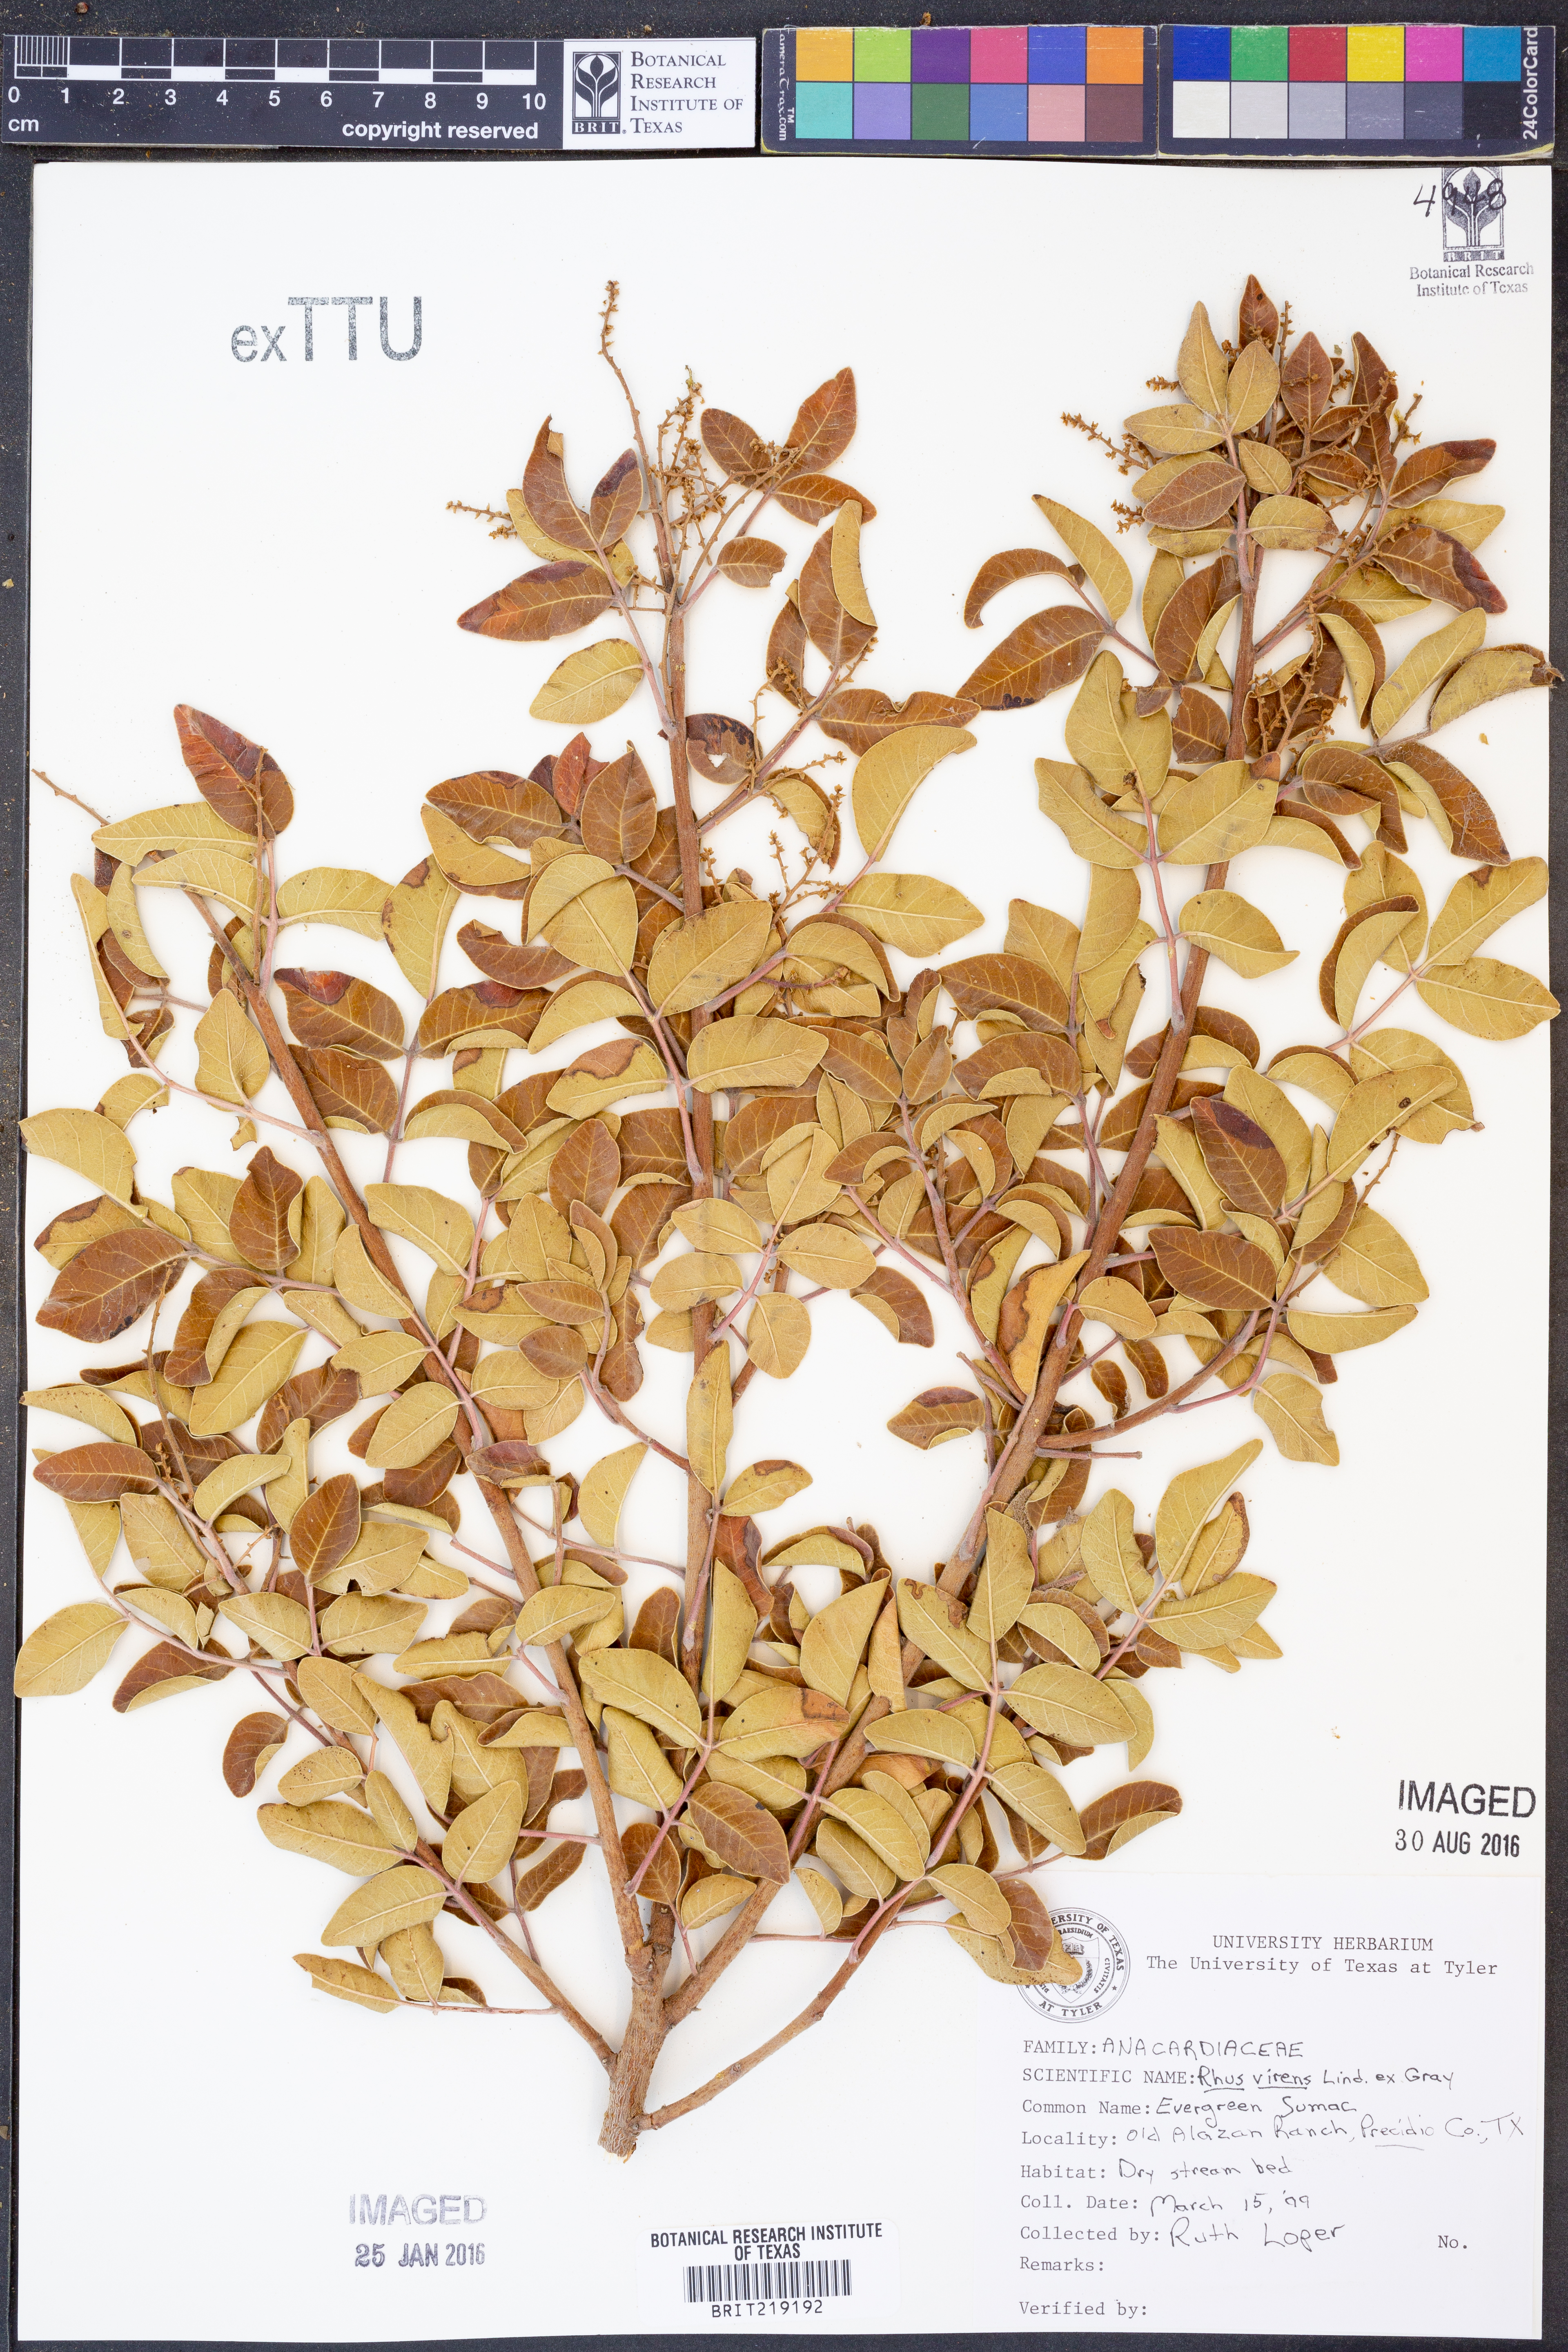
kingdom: Plantae
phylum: Tracheophyta
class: Magnoliopsida
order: Sapindales
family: Anacardiaceae
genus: Rhus
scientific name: Rhus virens
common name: Evergreen sumac
